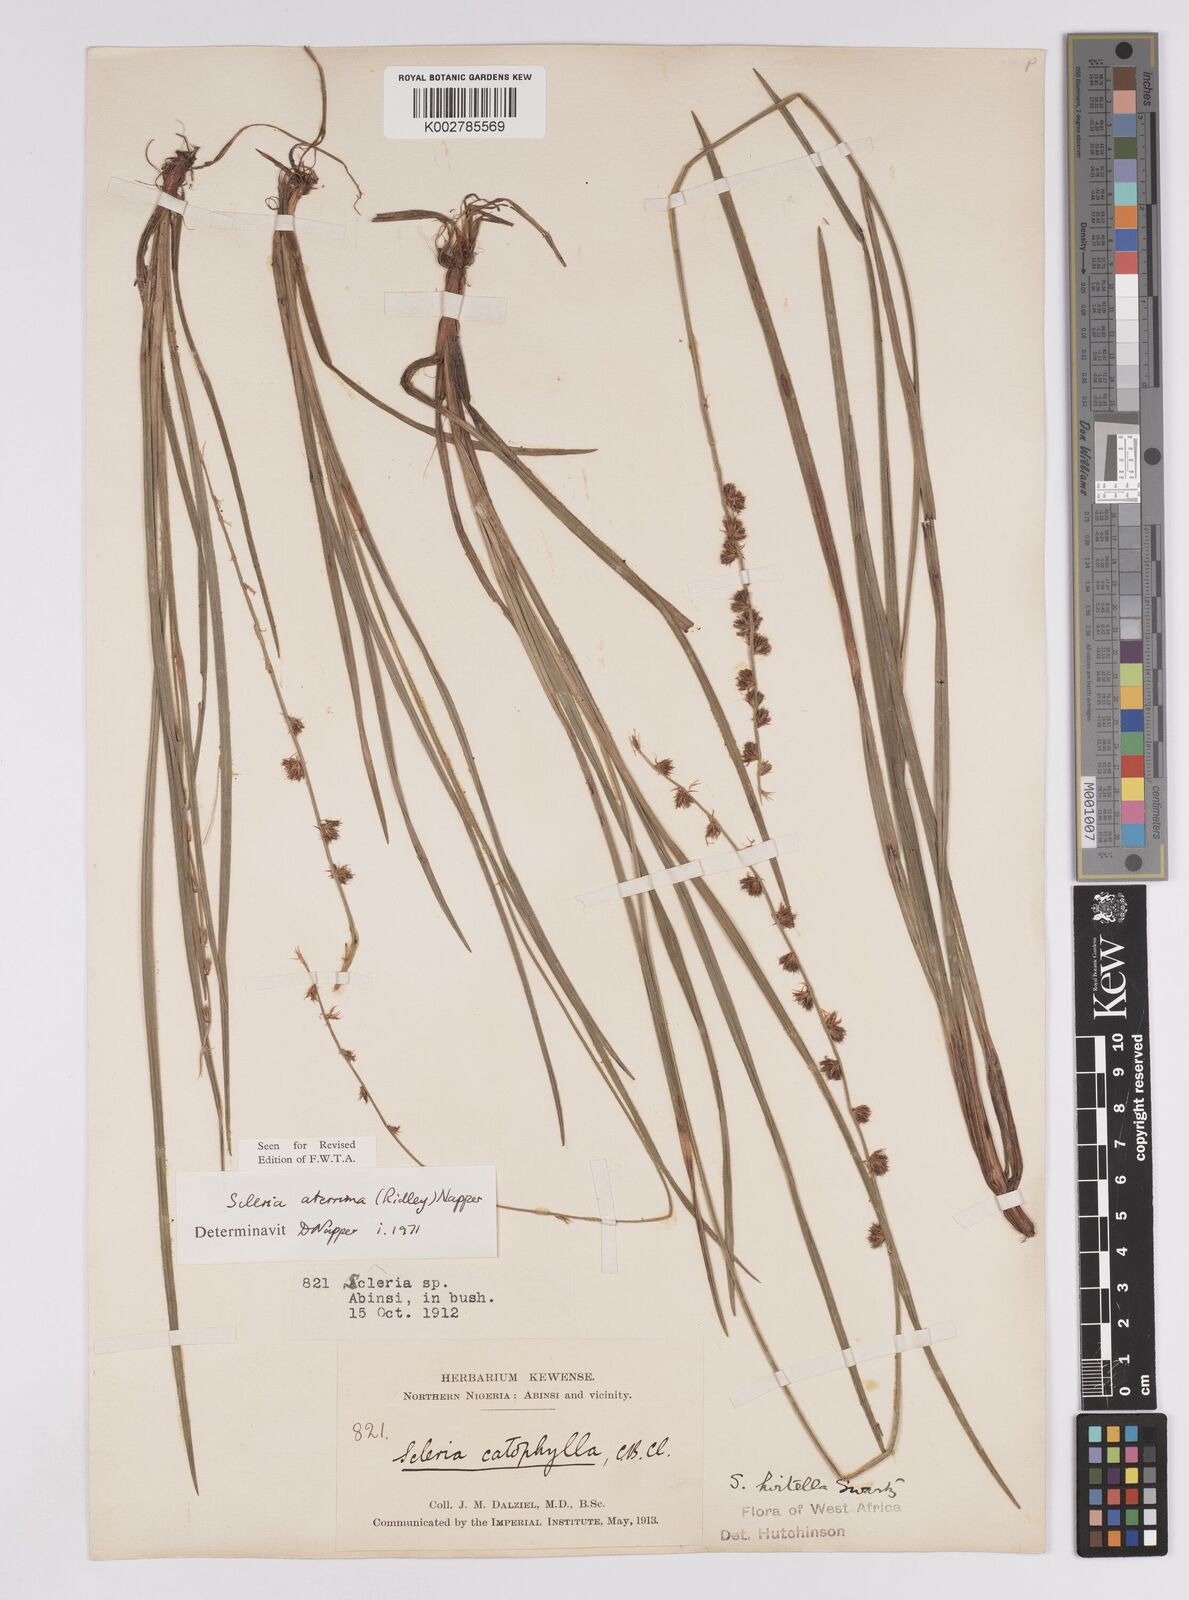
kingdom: Plantae
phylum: Tracheophyta
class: Liliopsida
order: Poales
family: Cyperaceae
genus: Scleria
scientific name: Scleria catophylla
